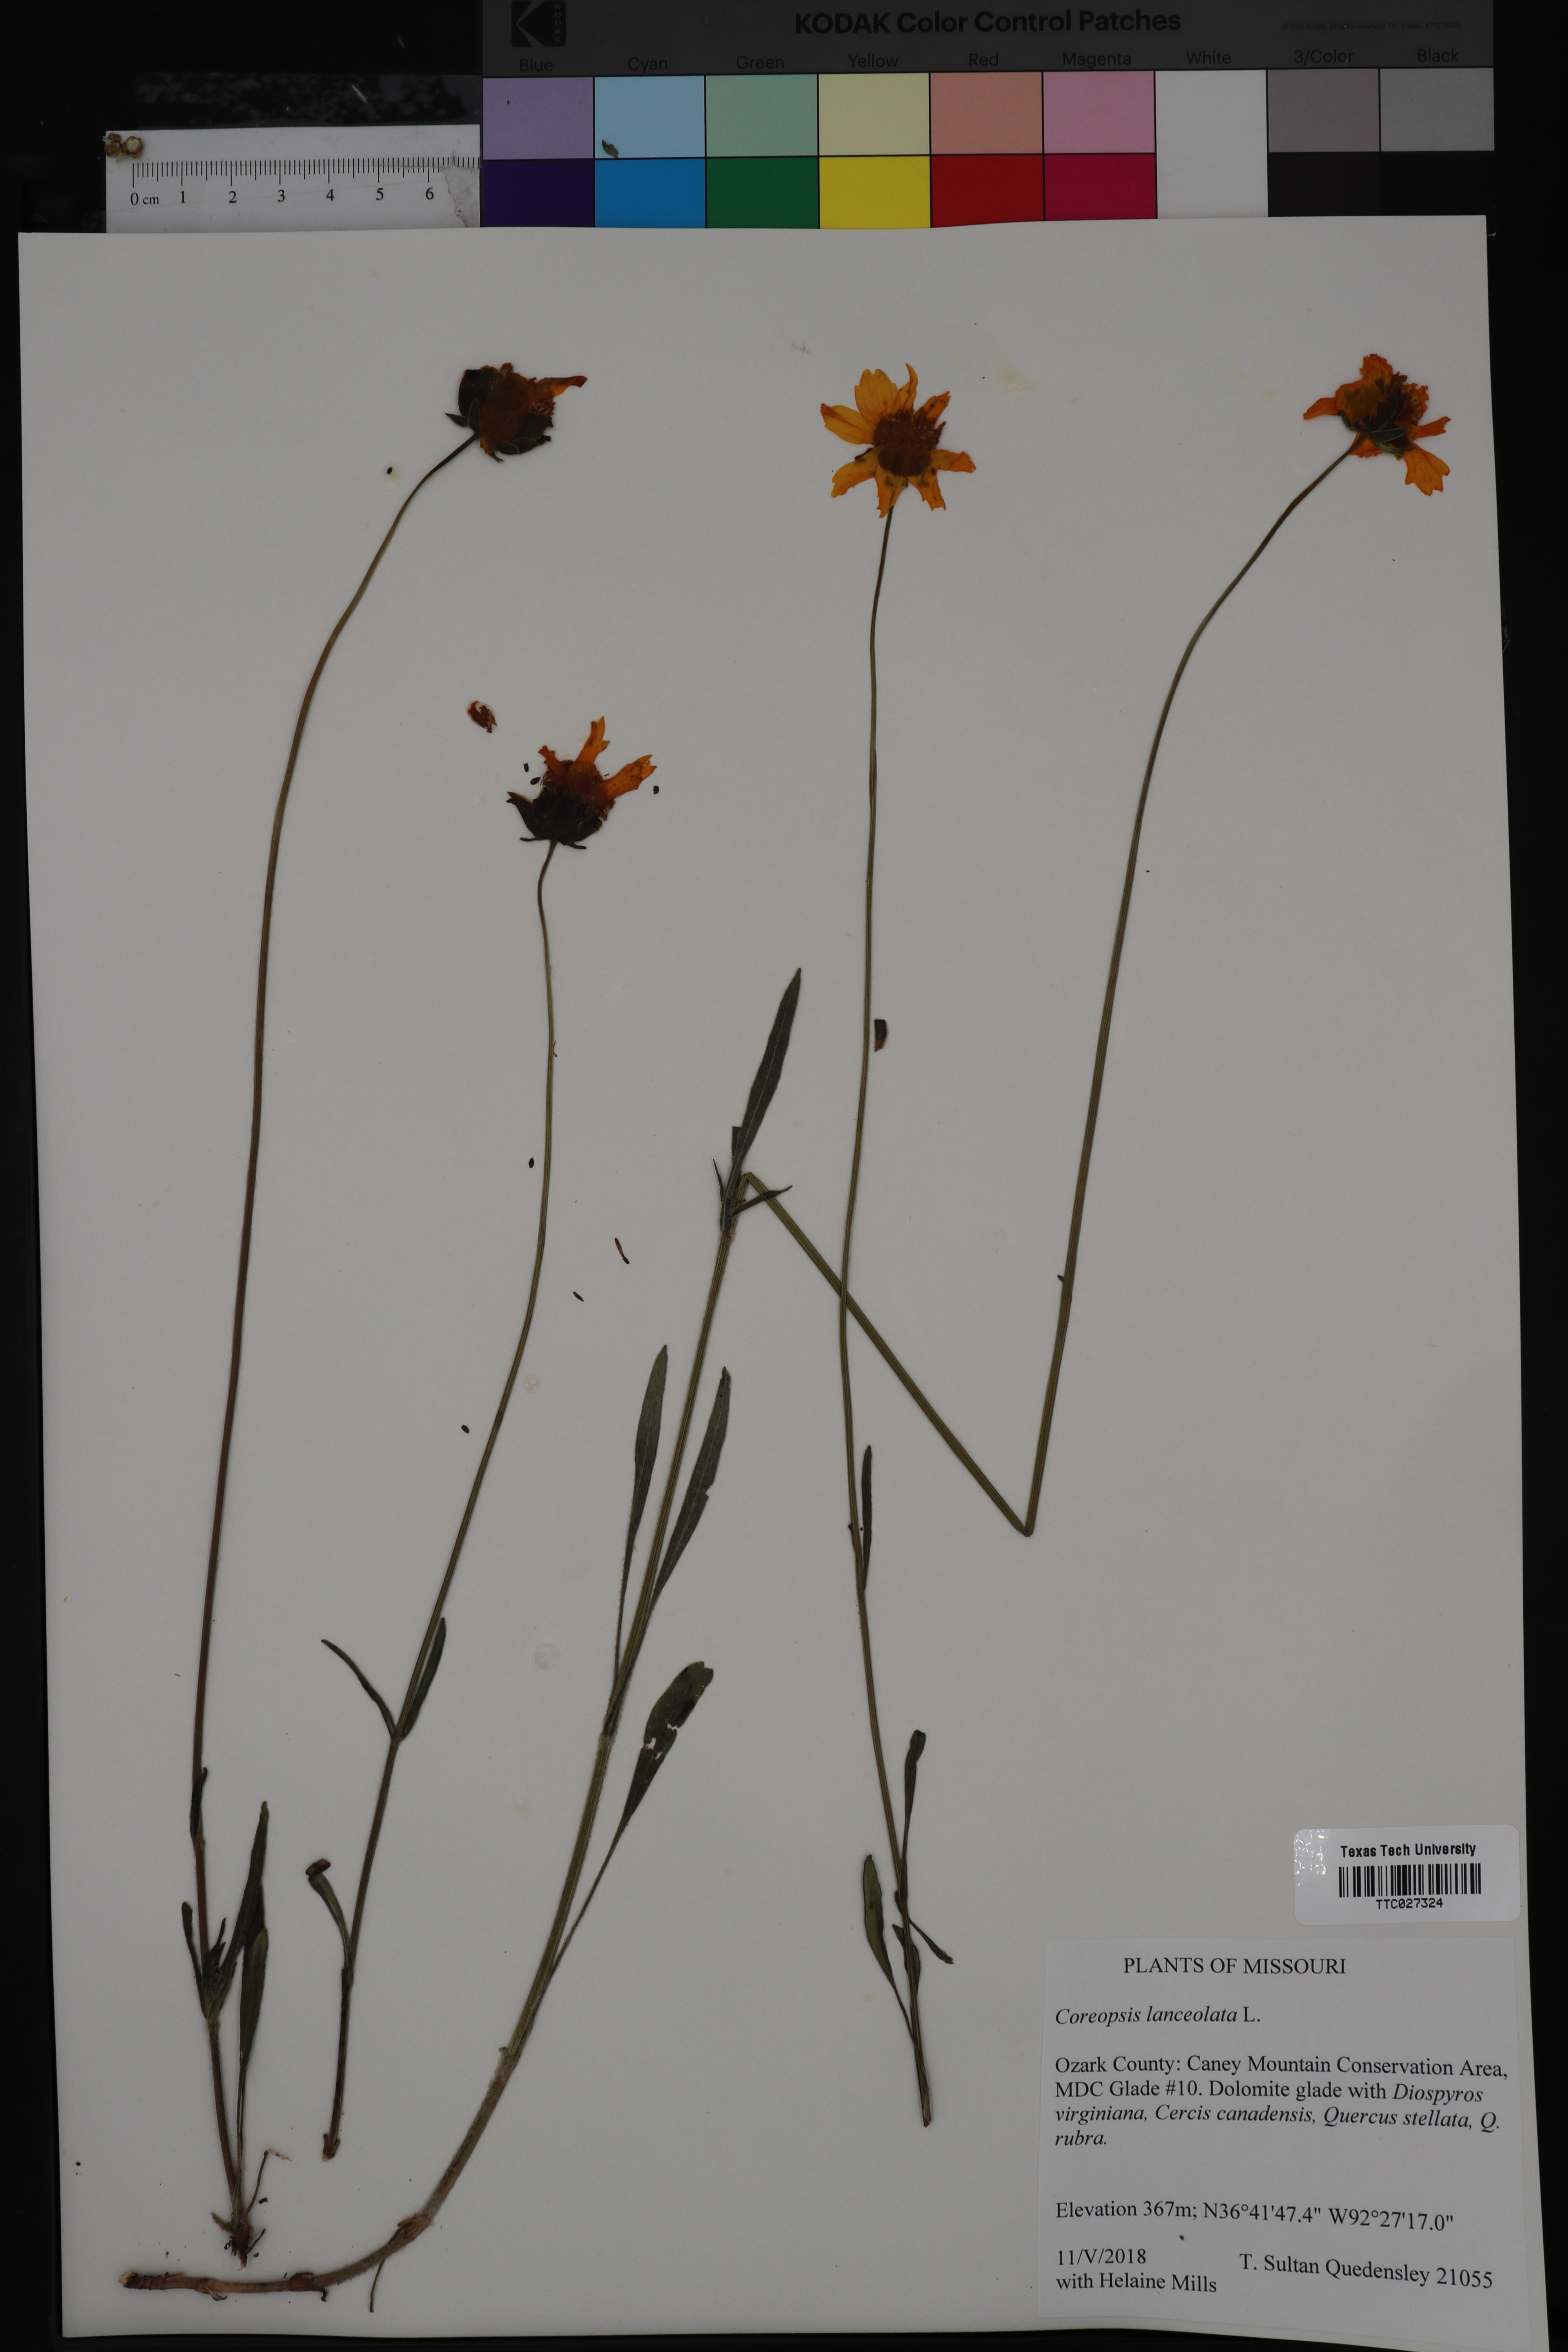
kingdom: Plantae
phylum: Tracheophyta
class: Magnoliopsida
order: Asterales
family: Asteraceae
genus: Coreopsis
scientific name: Coreopsis lanceolata
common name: Garden coreopsis
